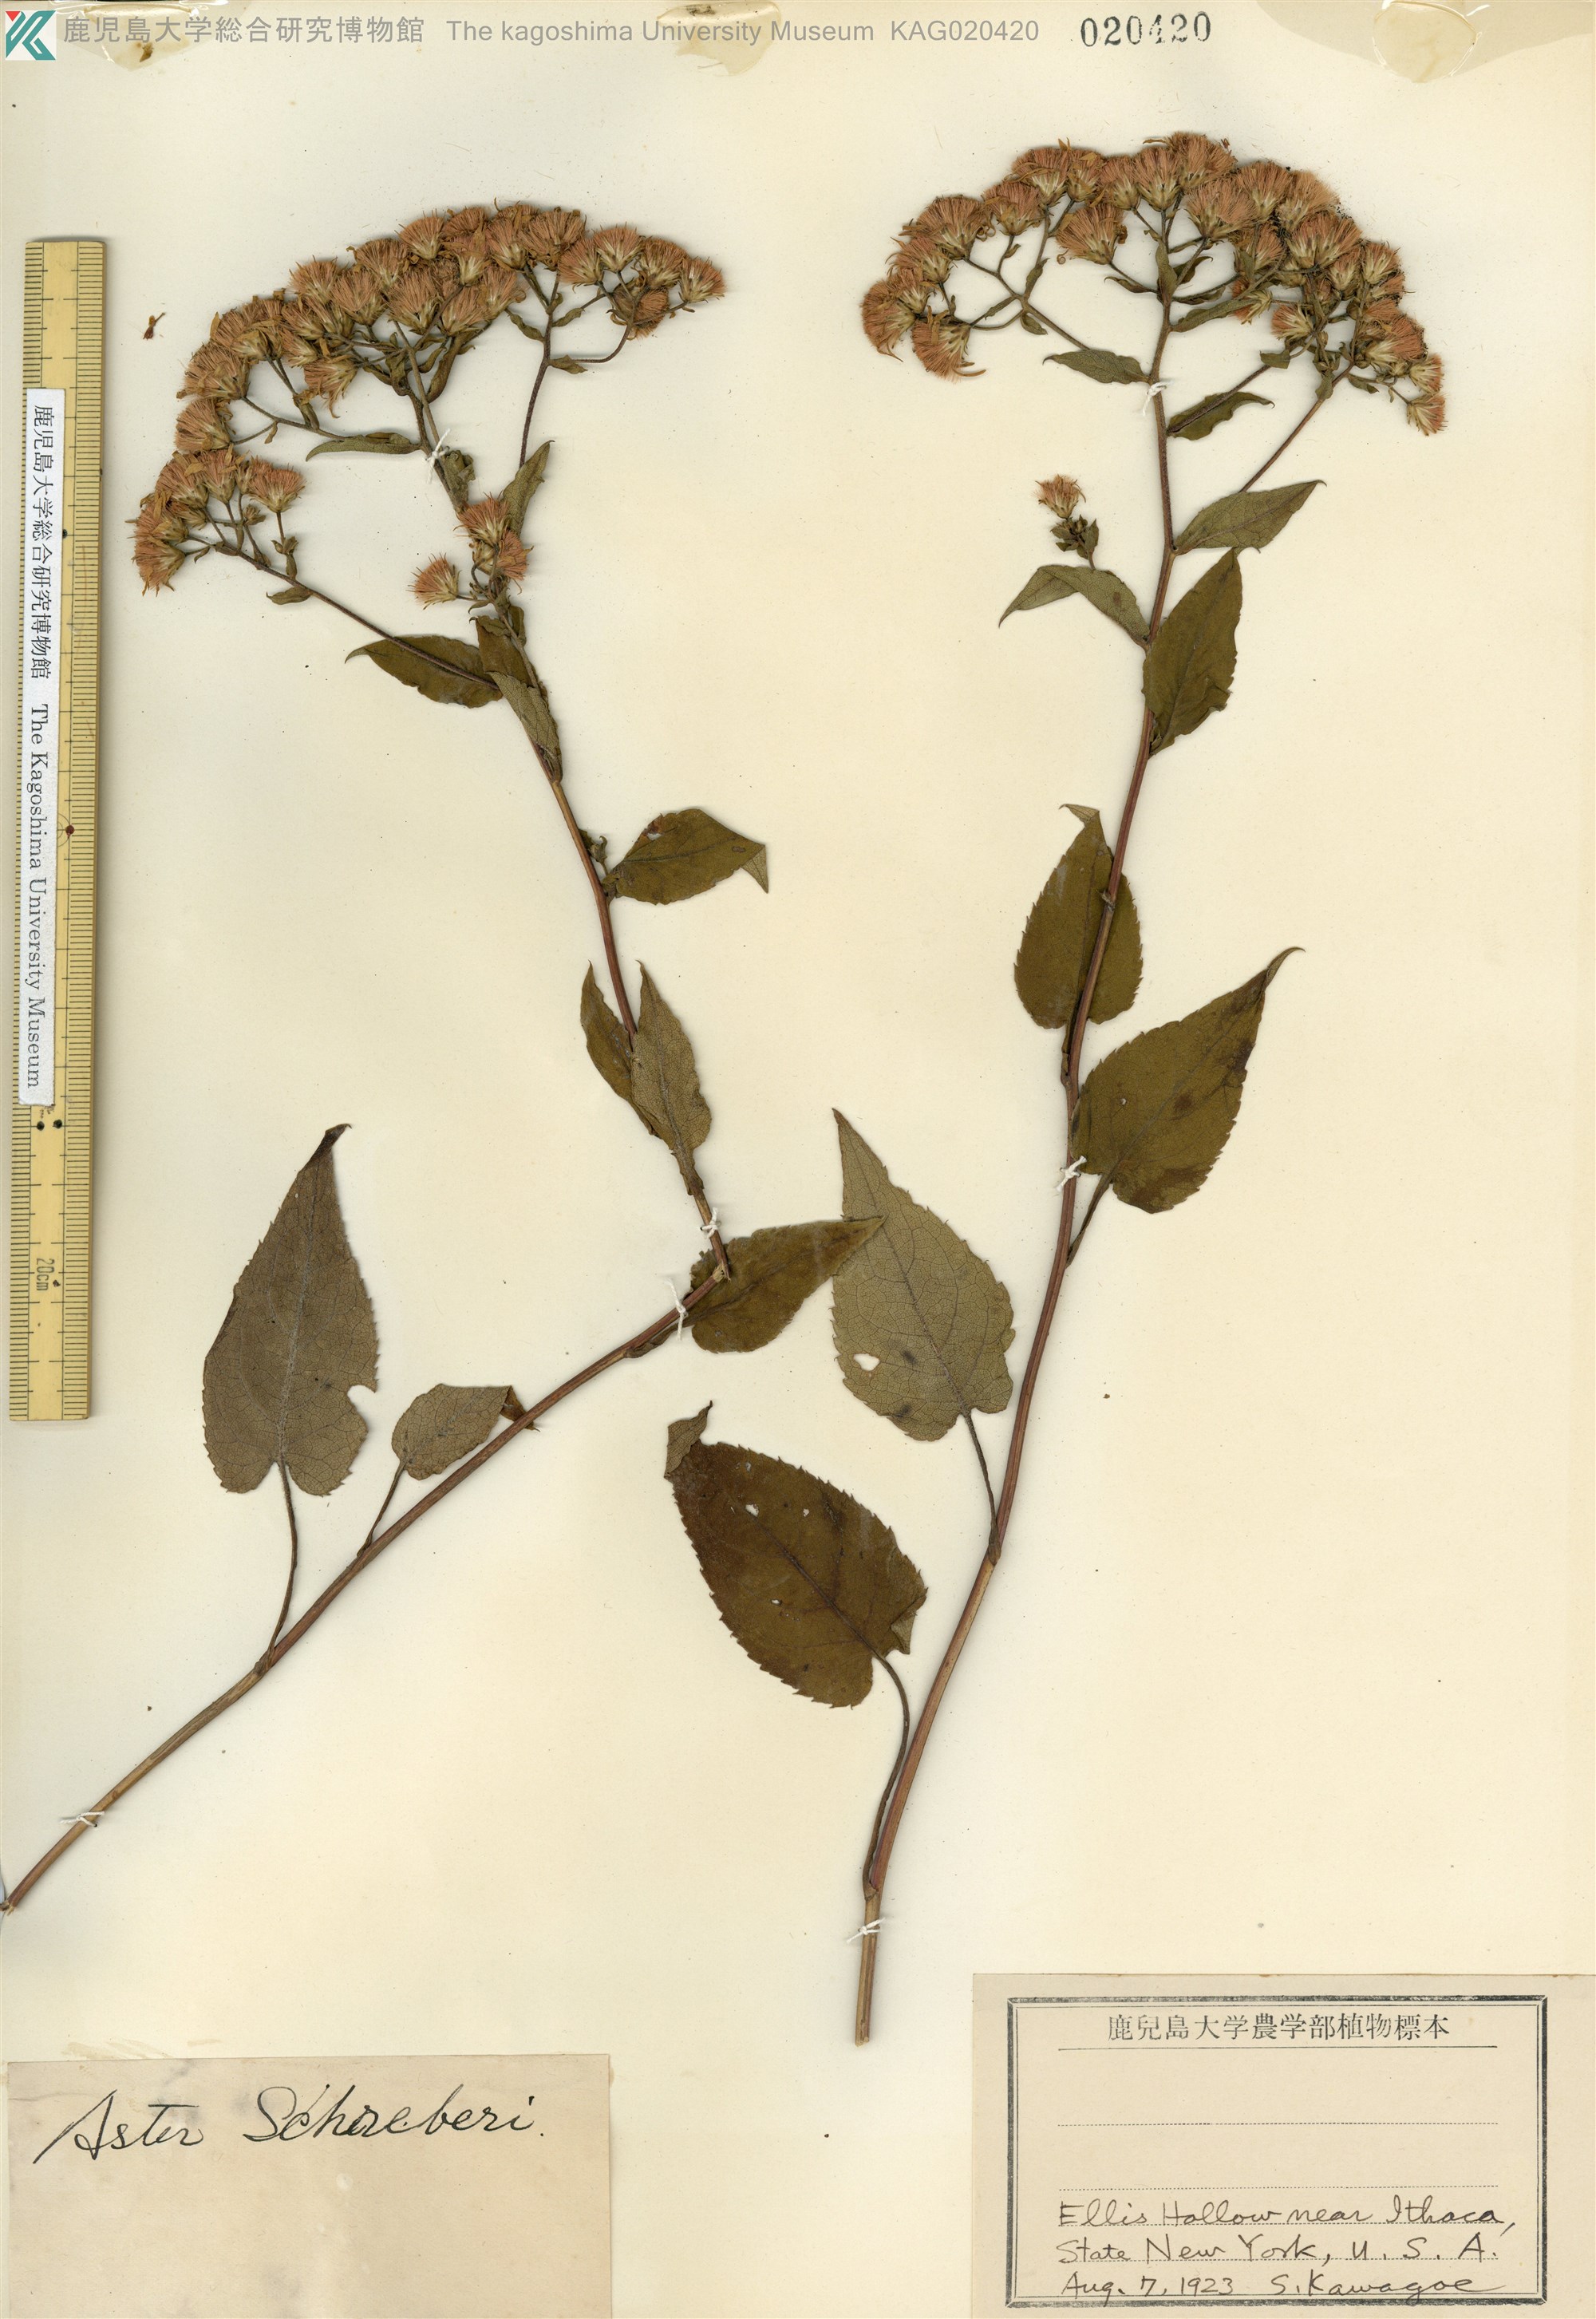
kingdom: Plantae
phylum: Tracheophyta
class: Magnoliopsida
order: Asterales
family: Asteraceae
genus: Eurybia
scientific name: Eurybia schreberi
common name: Schreber's aster
